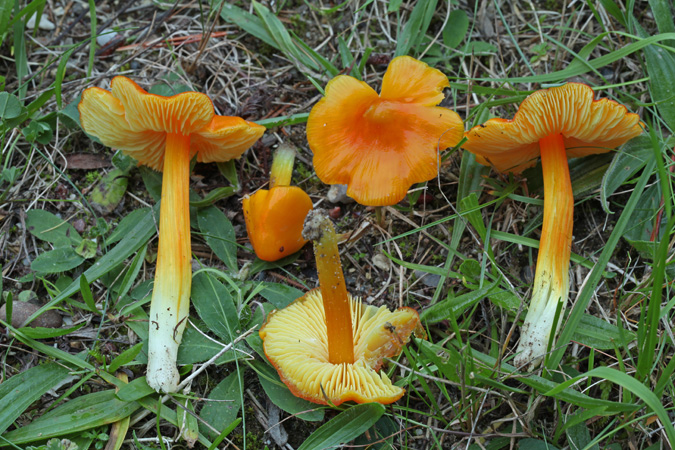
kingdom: Fungi
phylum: Basidiomycota
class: Agaricomycetes
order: Agaricales
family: Hygrophoraceae
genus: Hygrocybe
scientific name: Hygrocybe acutoconica
